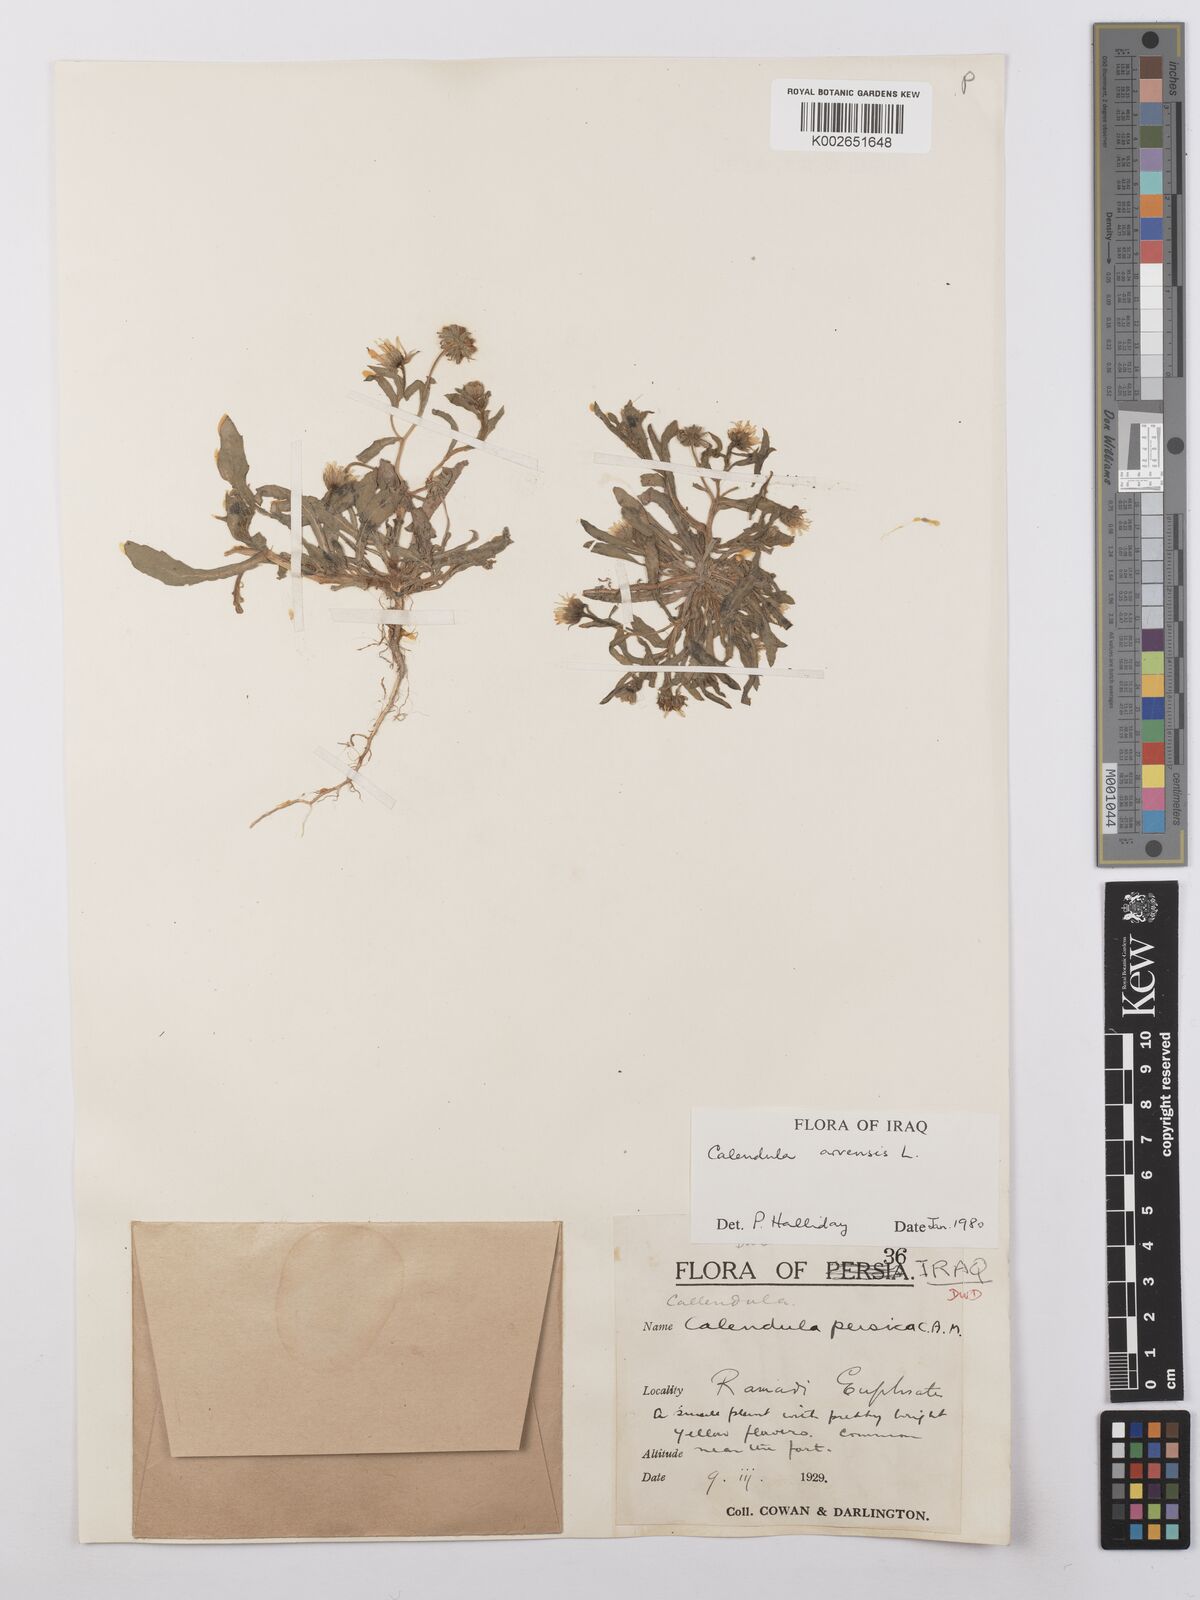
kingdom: Plantae
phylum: Tracheophyta
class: Magnoliopsida
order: Asterales
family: Asteraceae
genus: Calendula
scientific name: Calendula arvensis
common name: Field marigold
